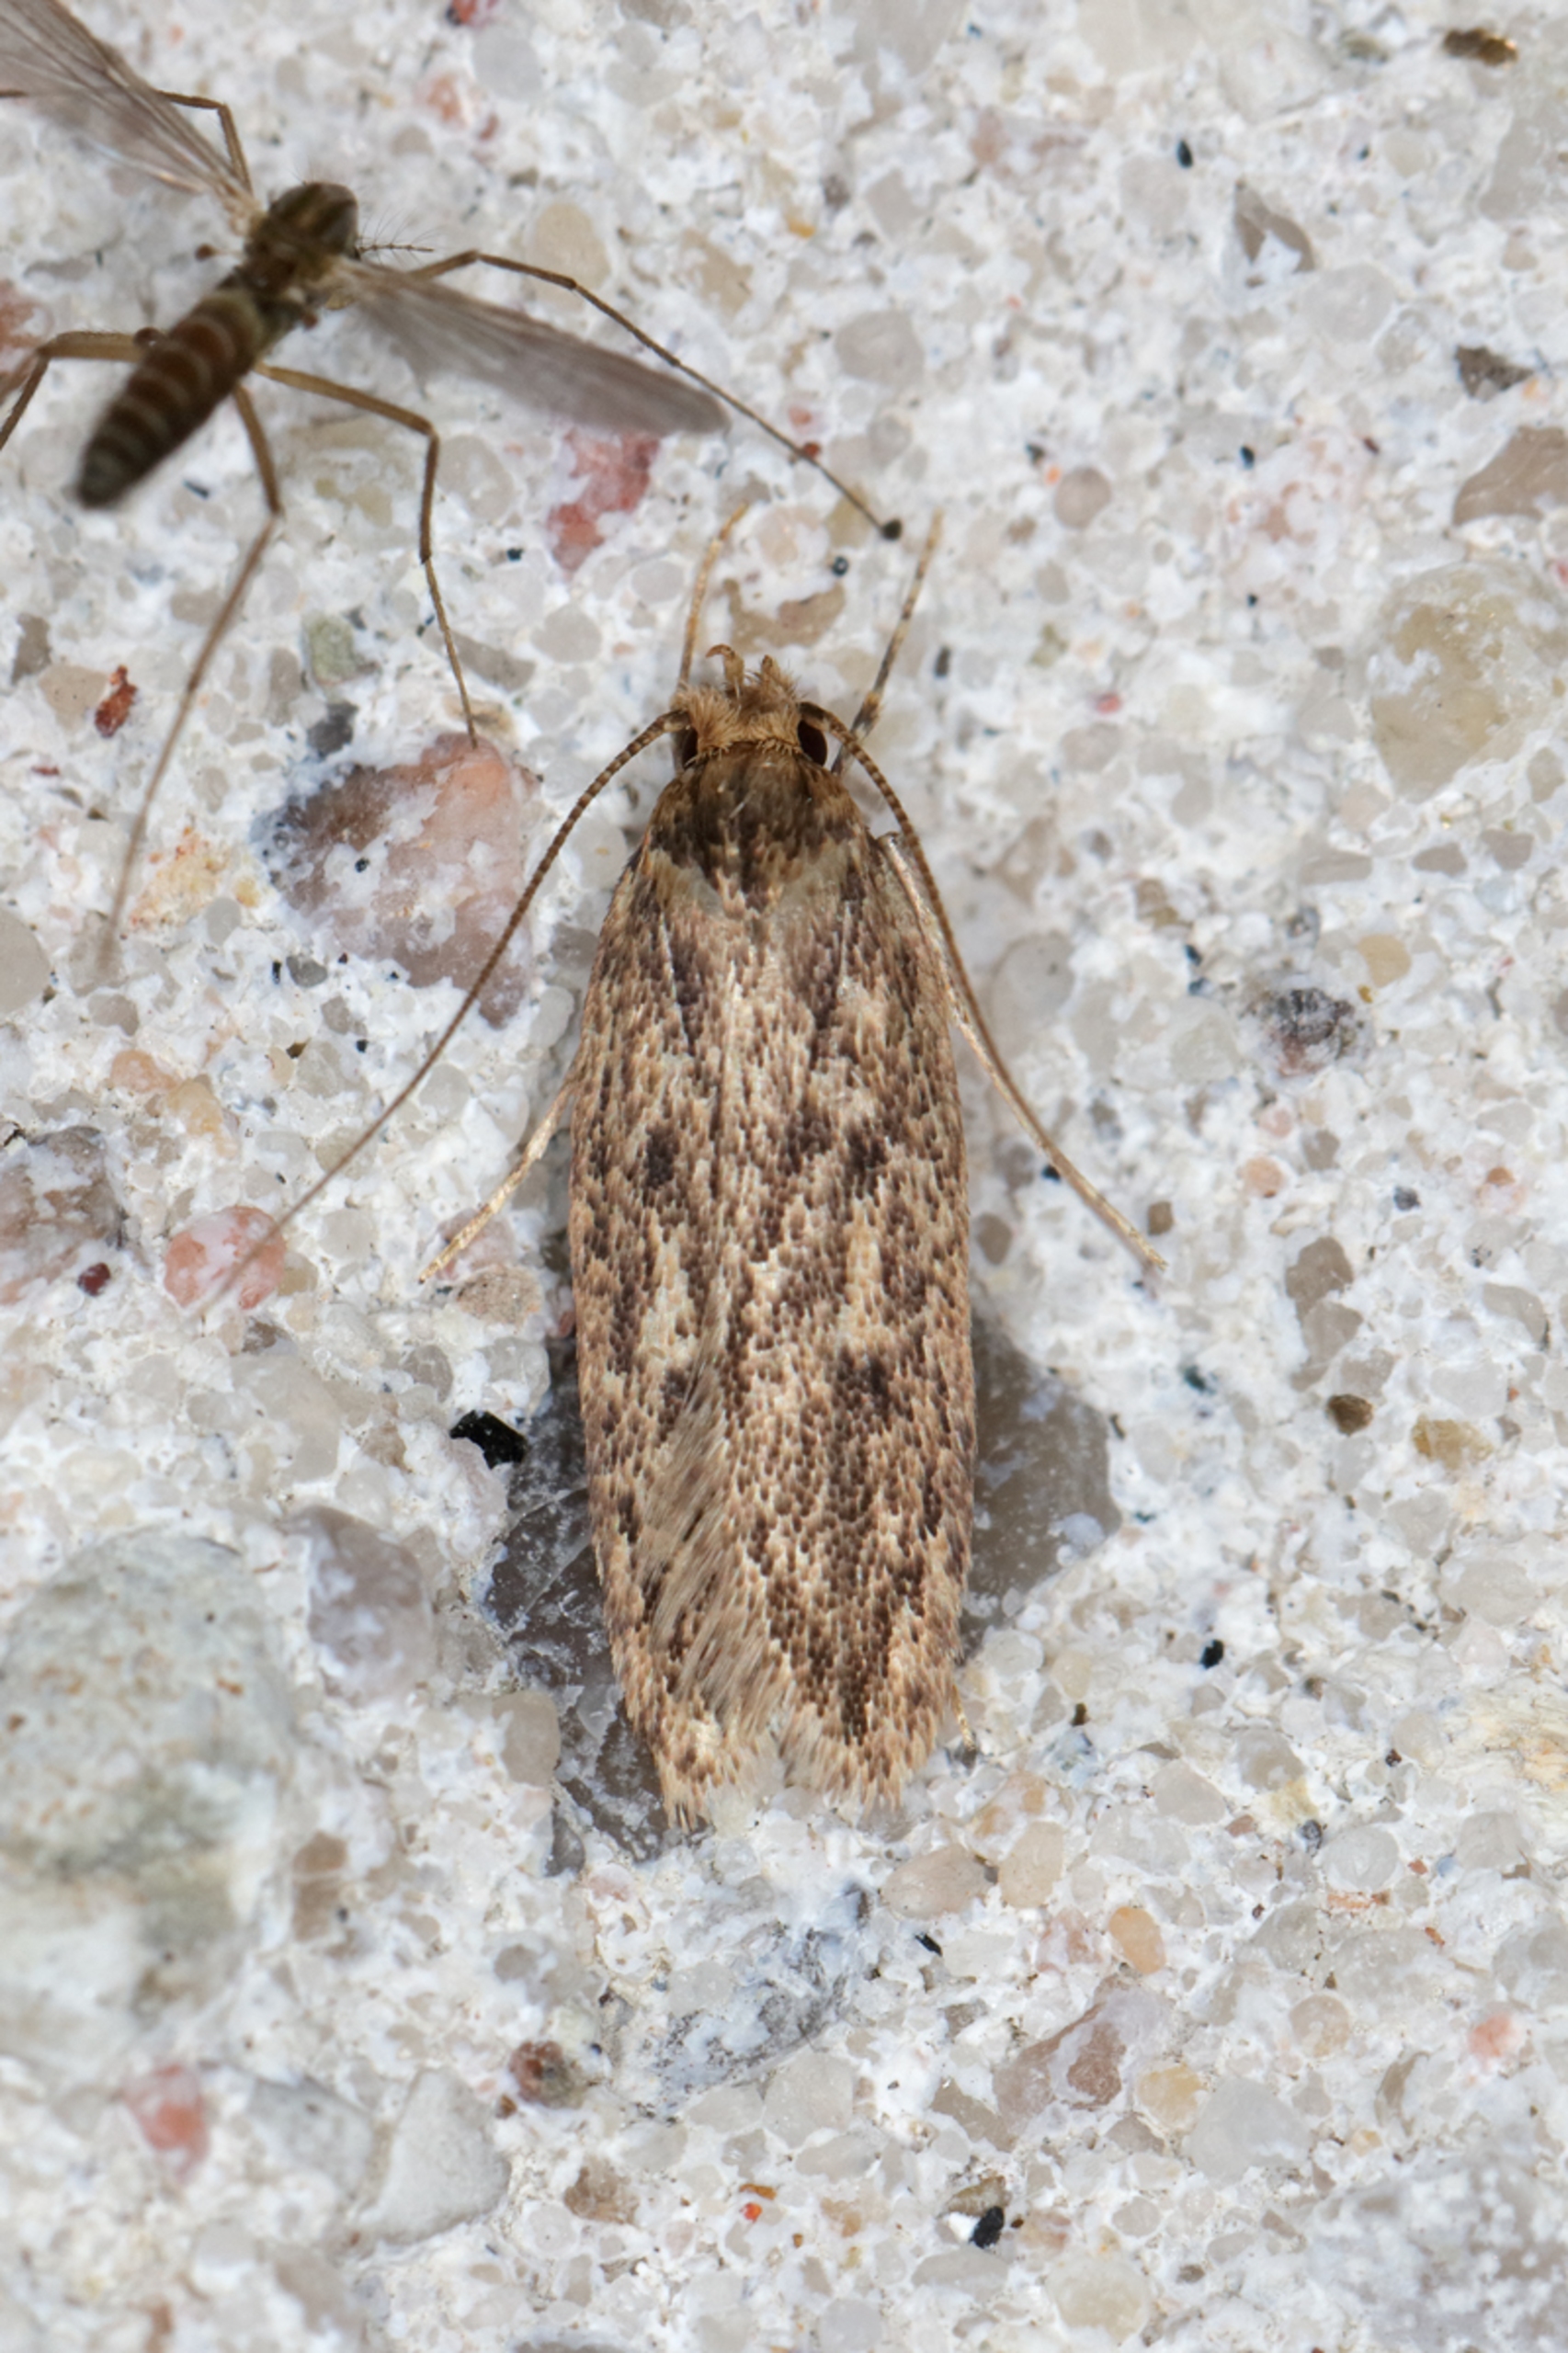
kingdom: Animalia
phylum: Arthropoda
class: Insecta
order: Lepidoptera
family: Oecophoridae
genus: Hofmannophila
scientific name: Hofmannophila pseudospretella
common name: Frømøl
